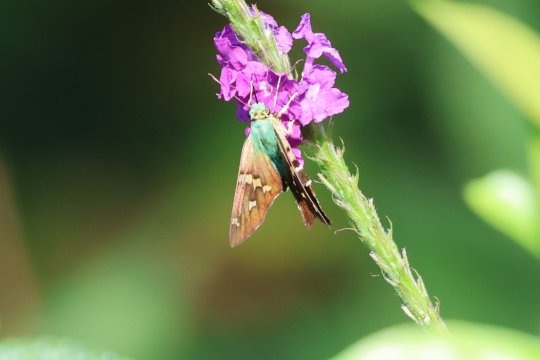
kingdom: Animalia
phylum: Arthropoda
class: Insecta
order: Lepidoptera
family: Hesperiidae
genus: Urbanus
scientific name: Urbanus pronta
